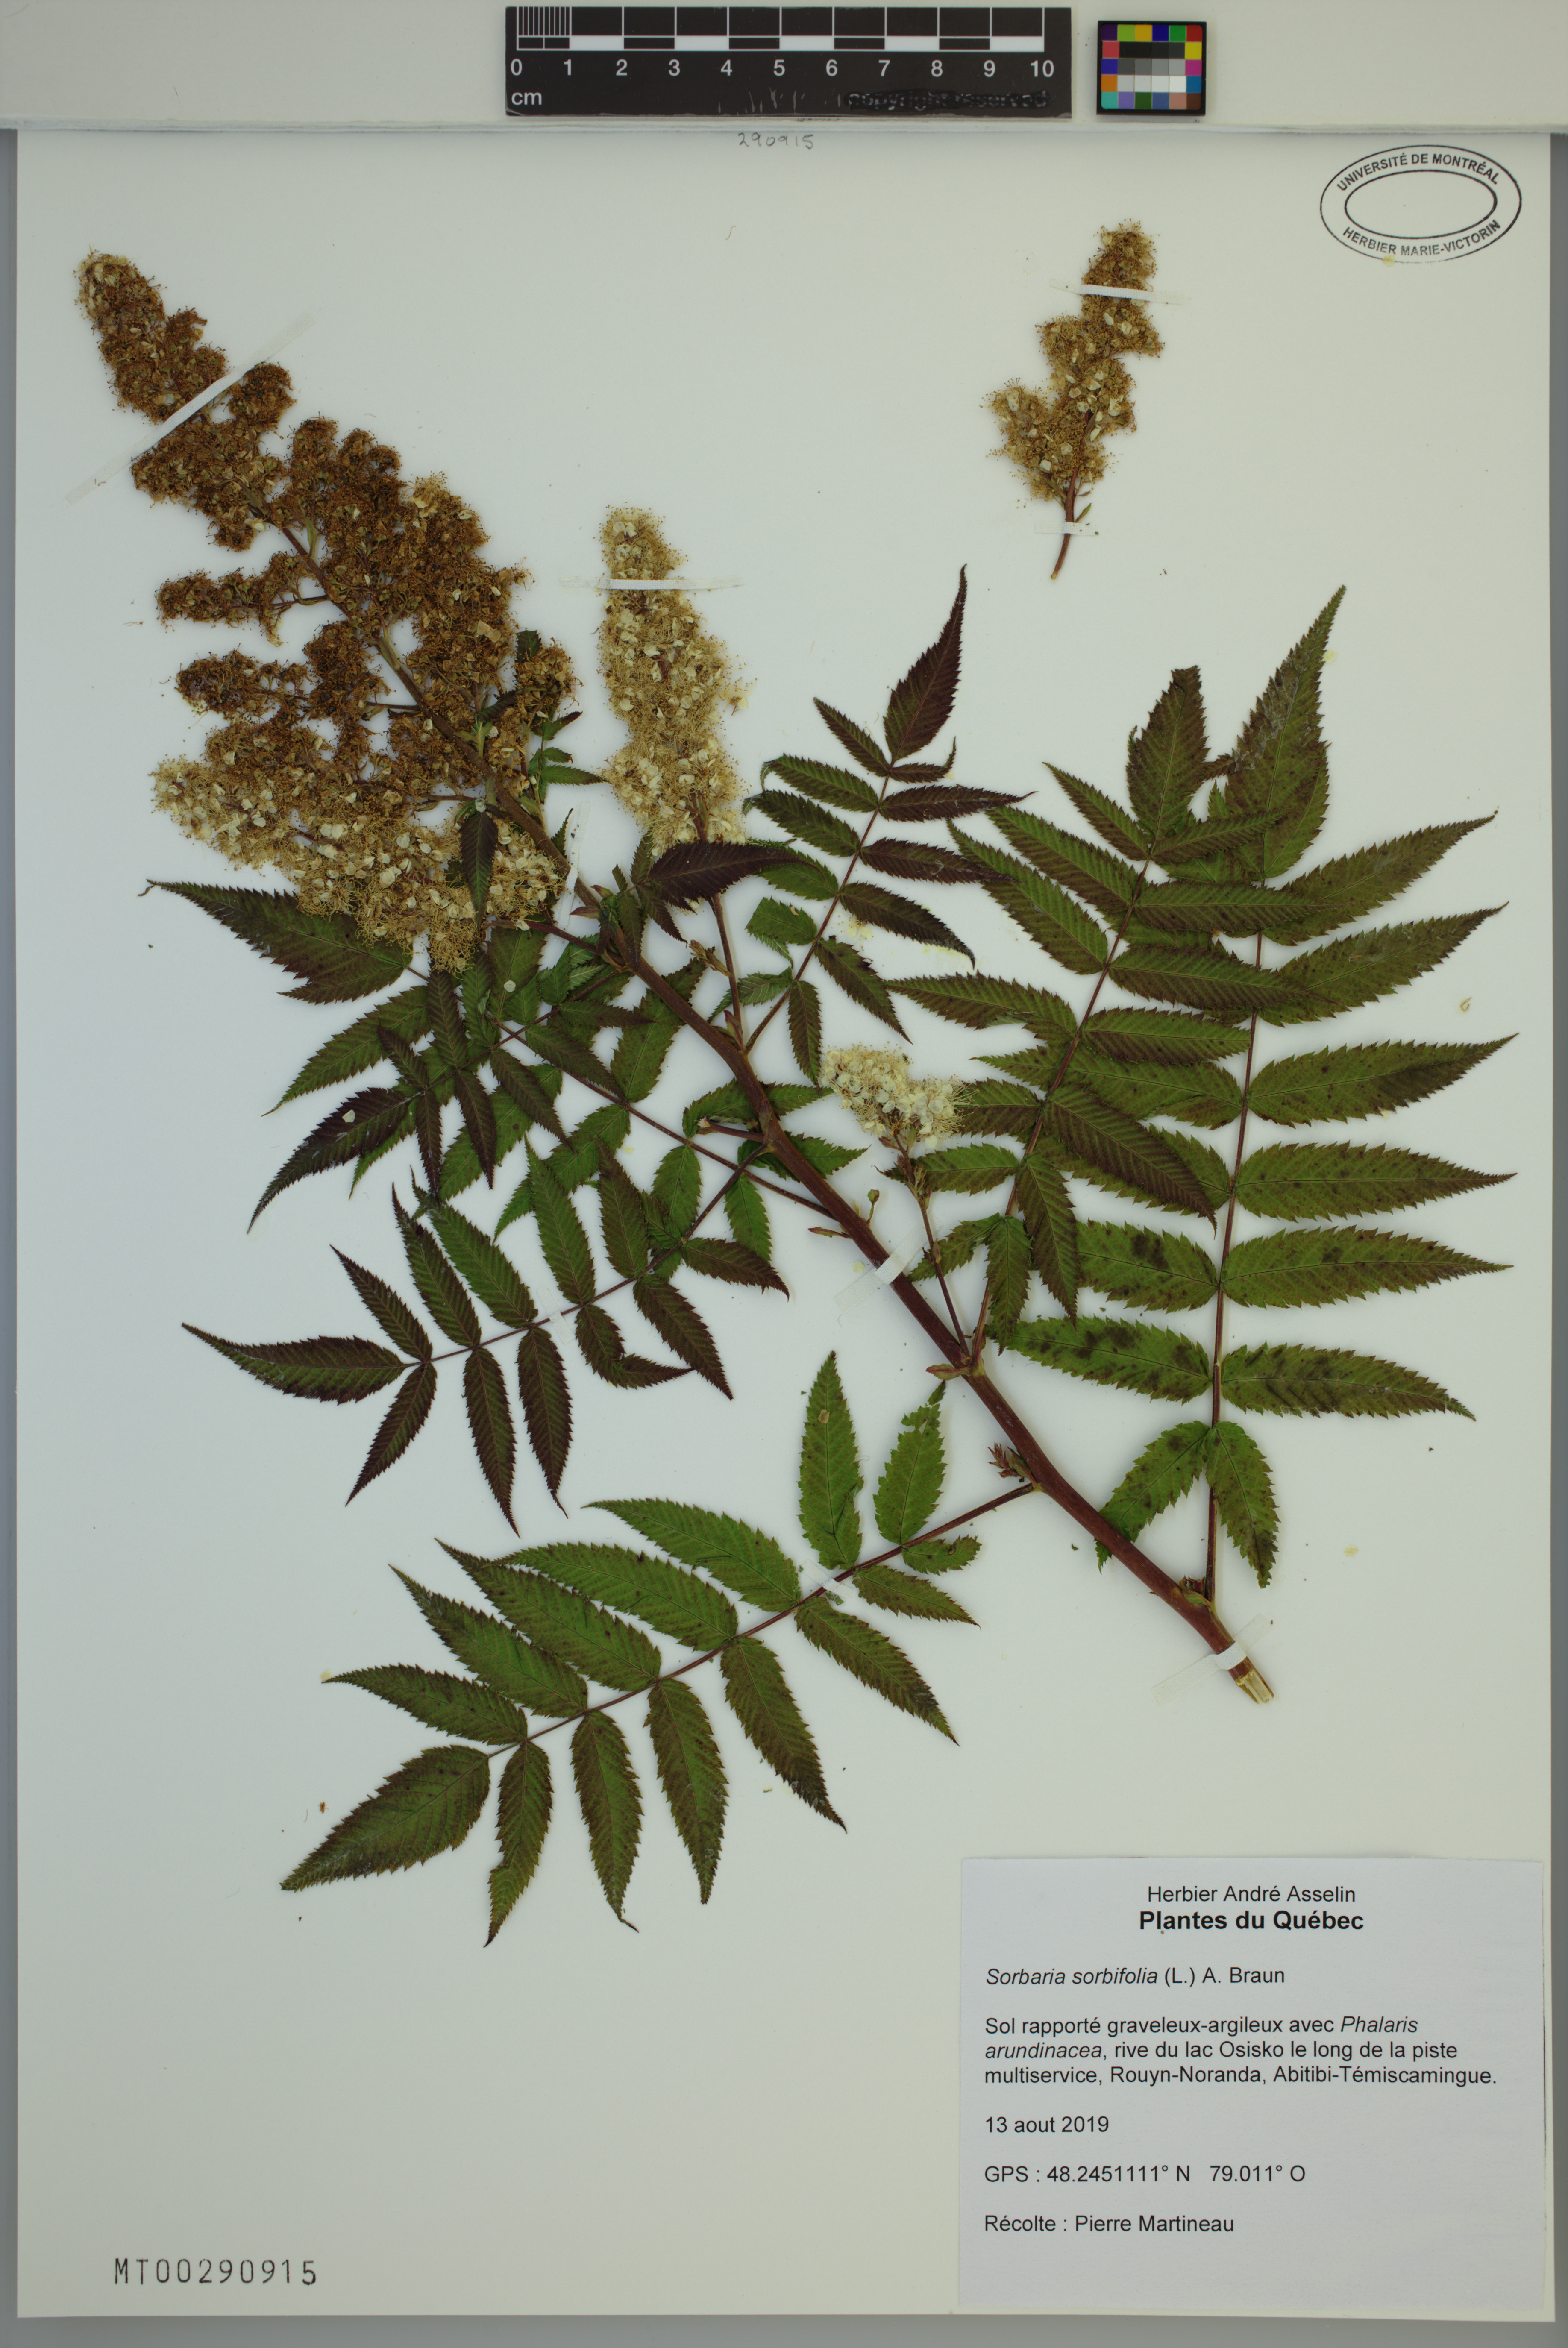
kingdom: Plantae
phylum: Tracheophyta
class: Magnoliopsida
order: Rosales
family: Rosaceae
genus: Sorbaria
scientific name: Sorbaria sorbifolia
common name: False spiraea
